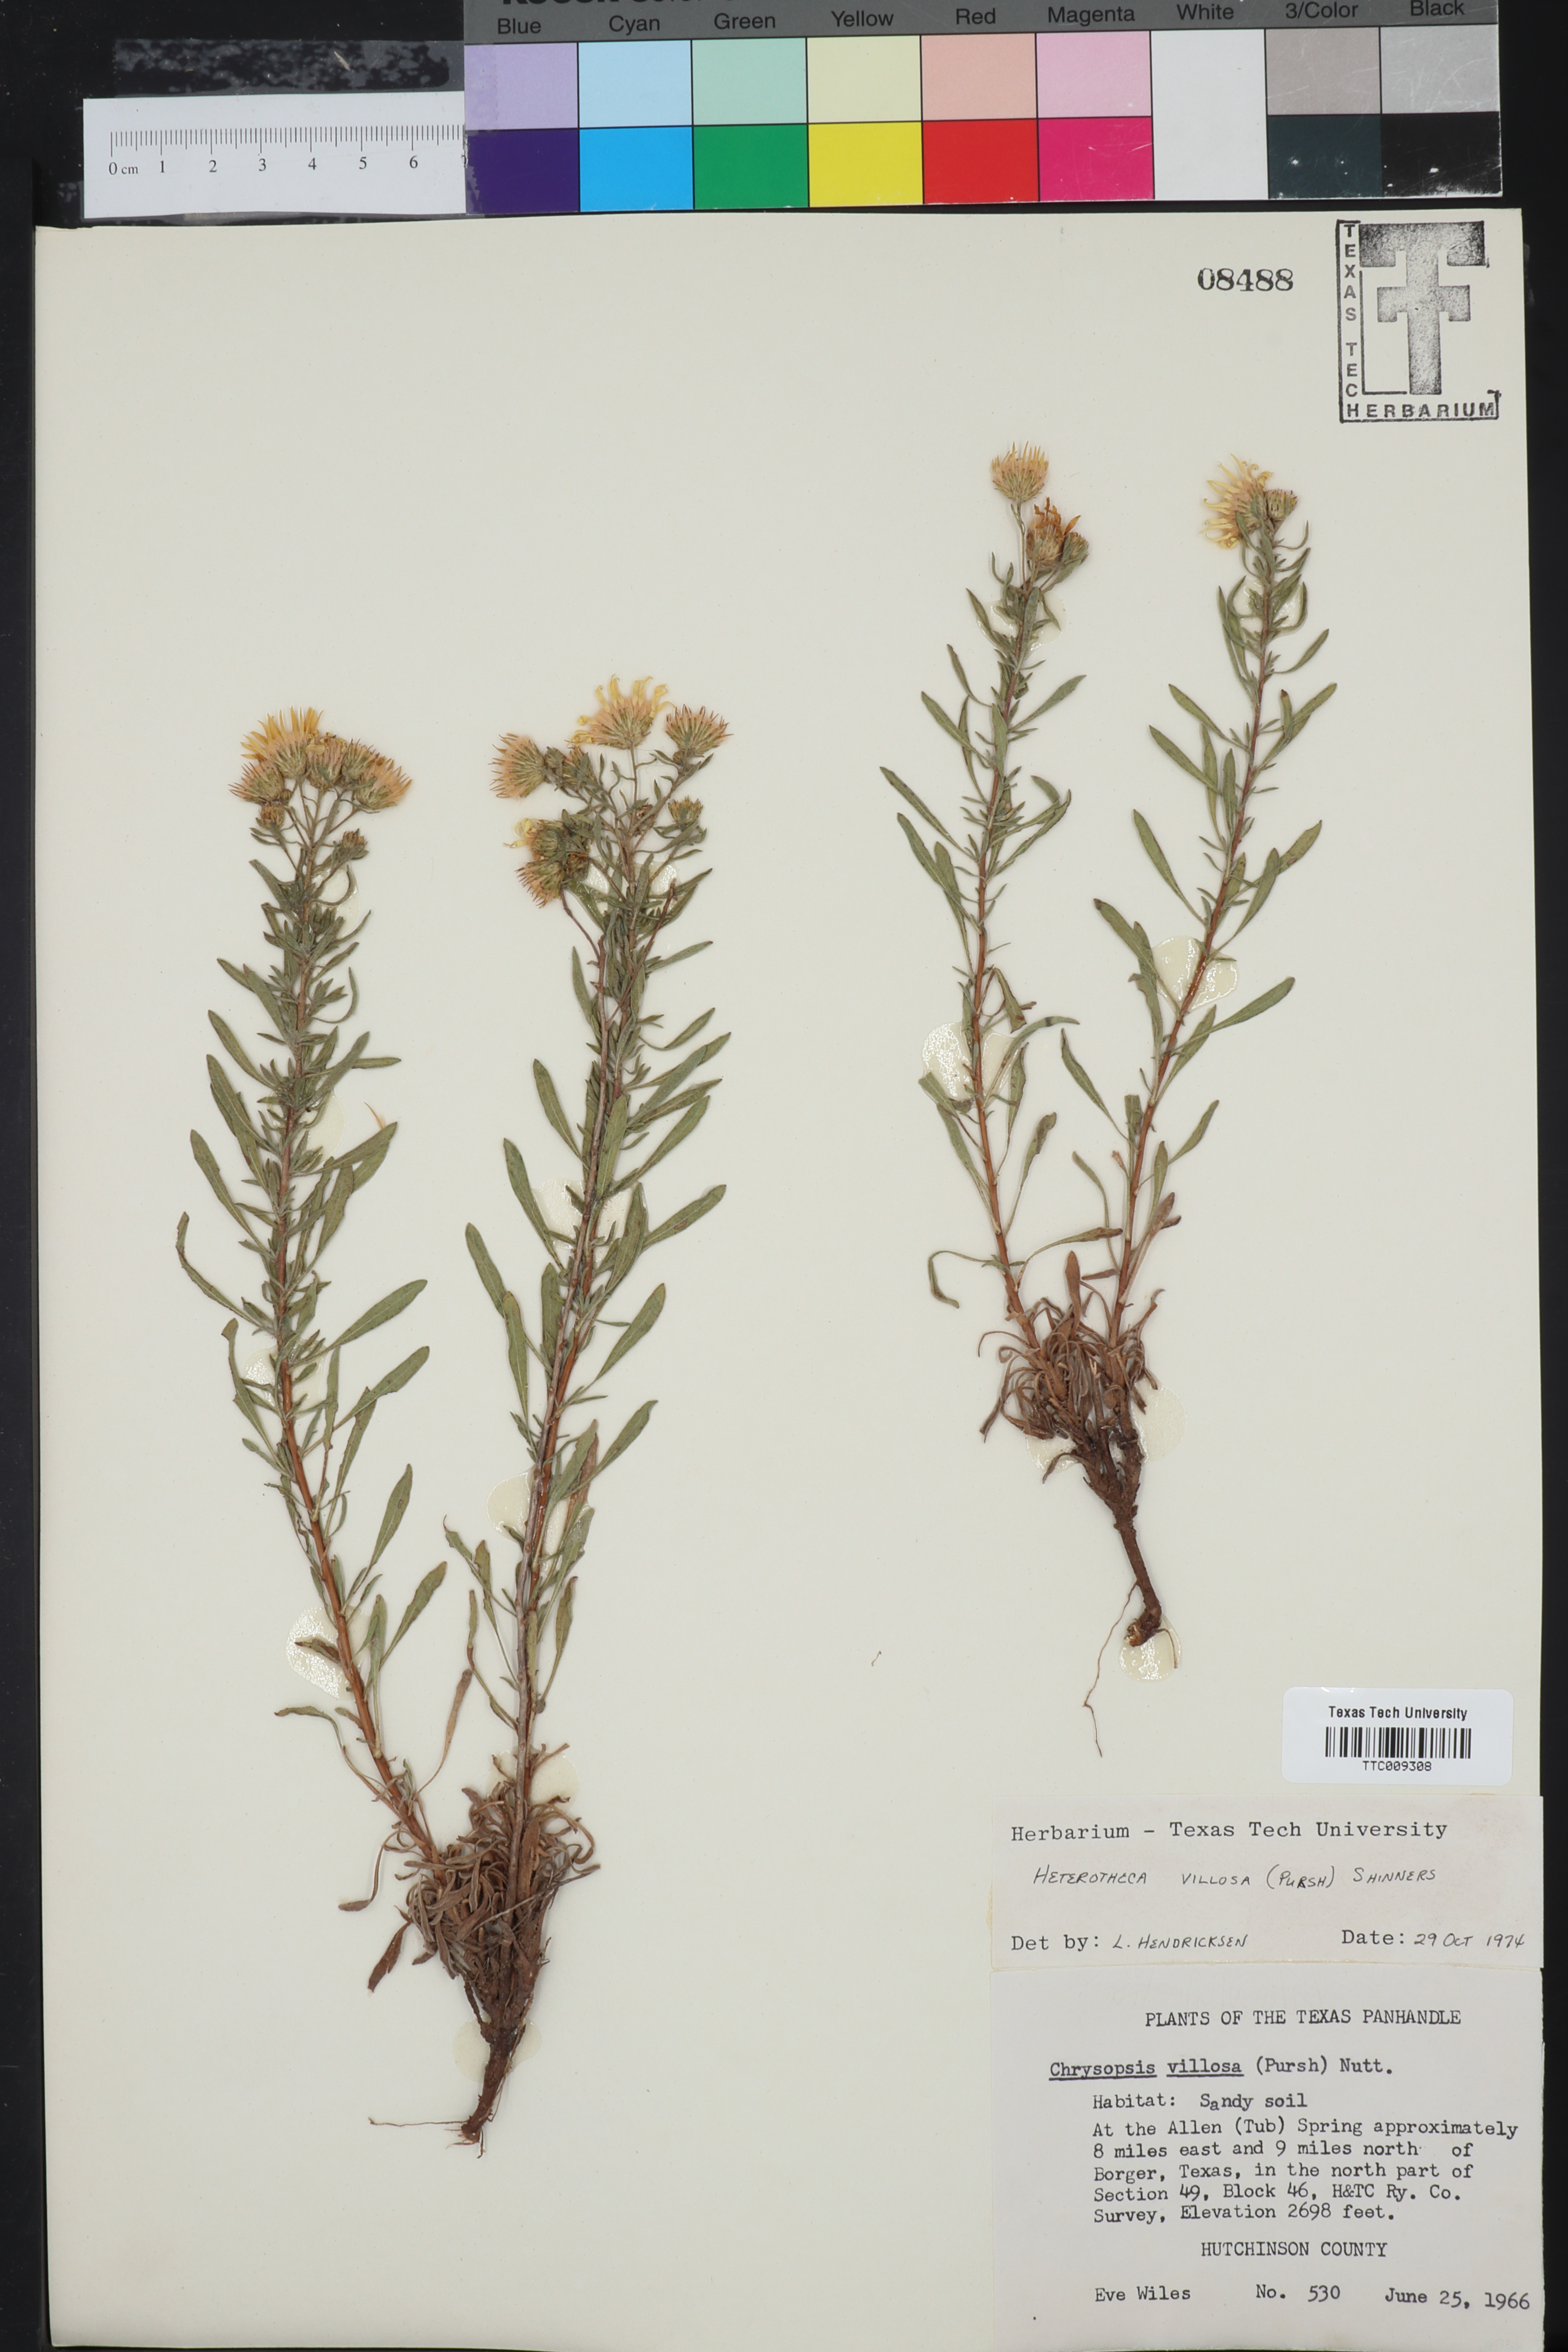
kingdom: Plantae
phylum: Tracheophyta
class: Magnoliopsida
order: Asterales
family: Asteraceae
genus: Heterotheca
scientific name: Heterotheca villosa
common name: Hairy false goldenaster
